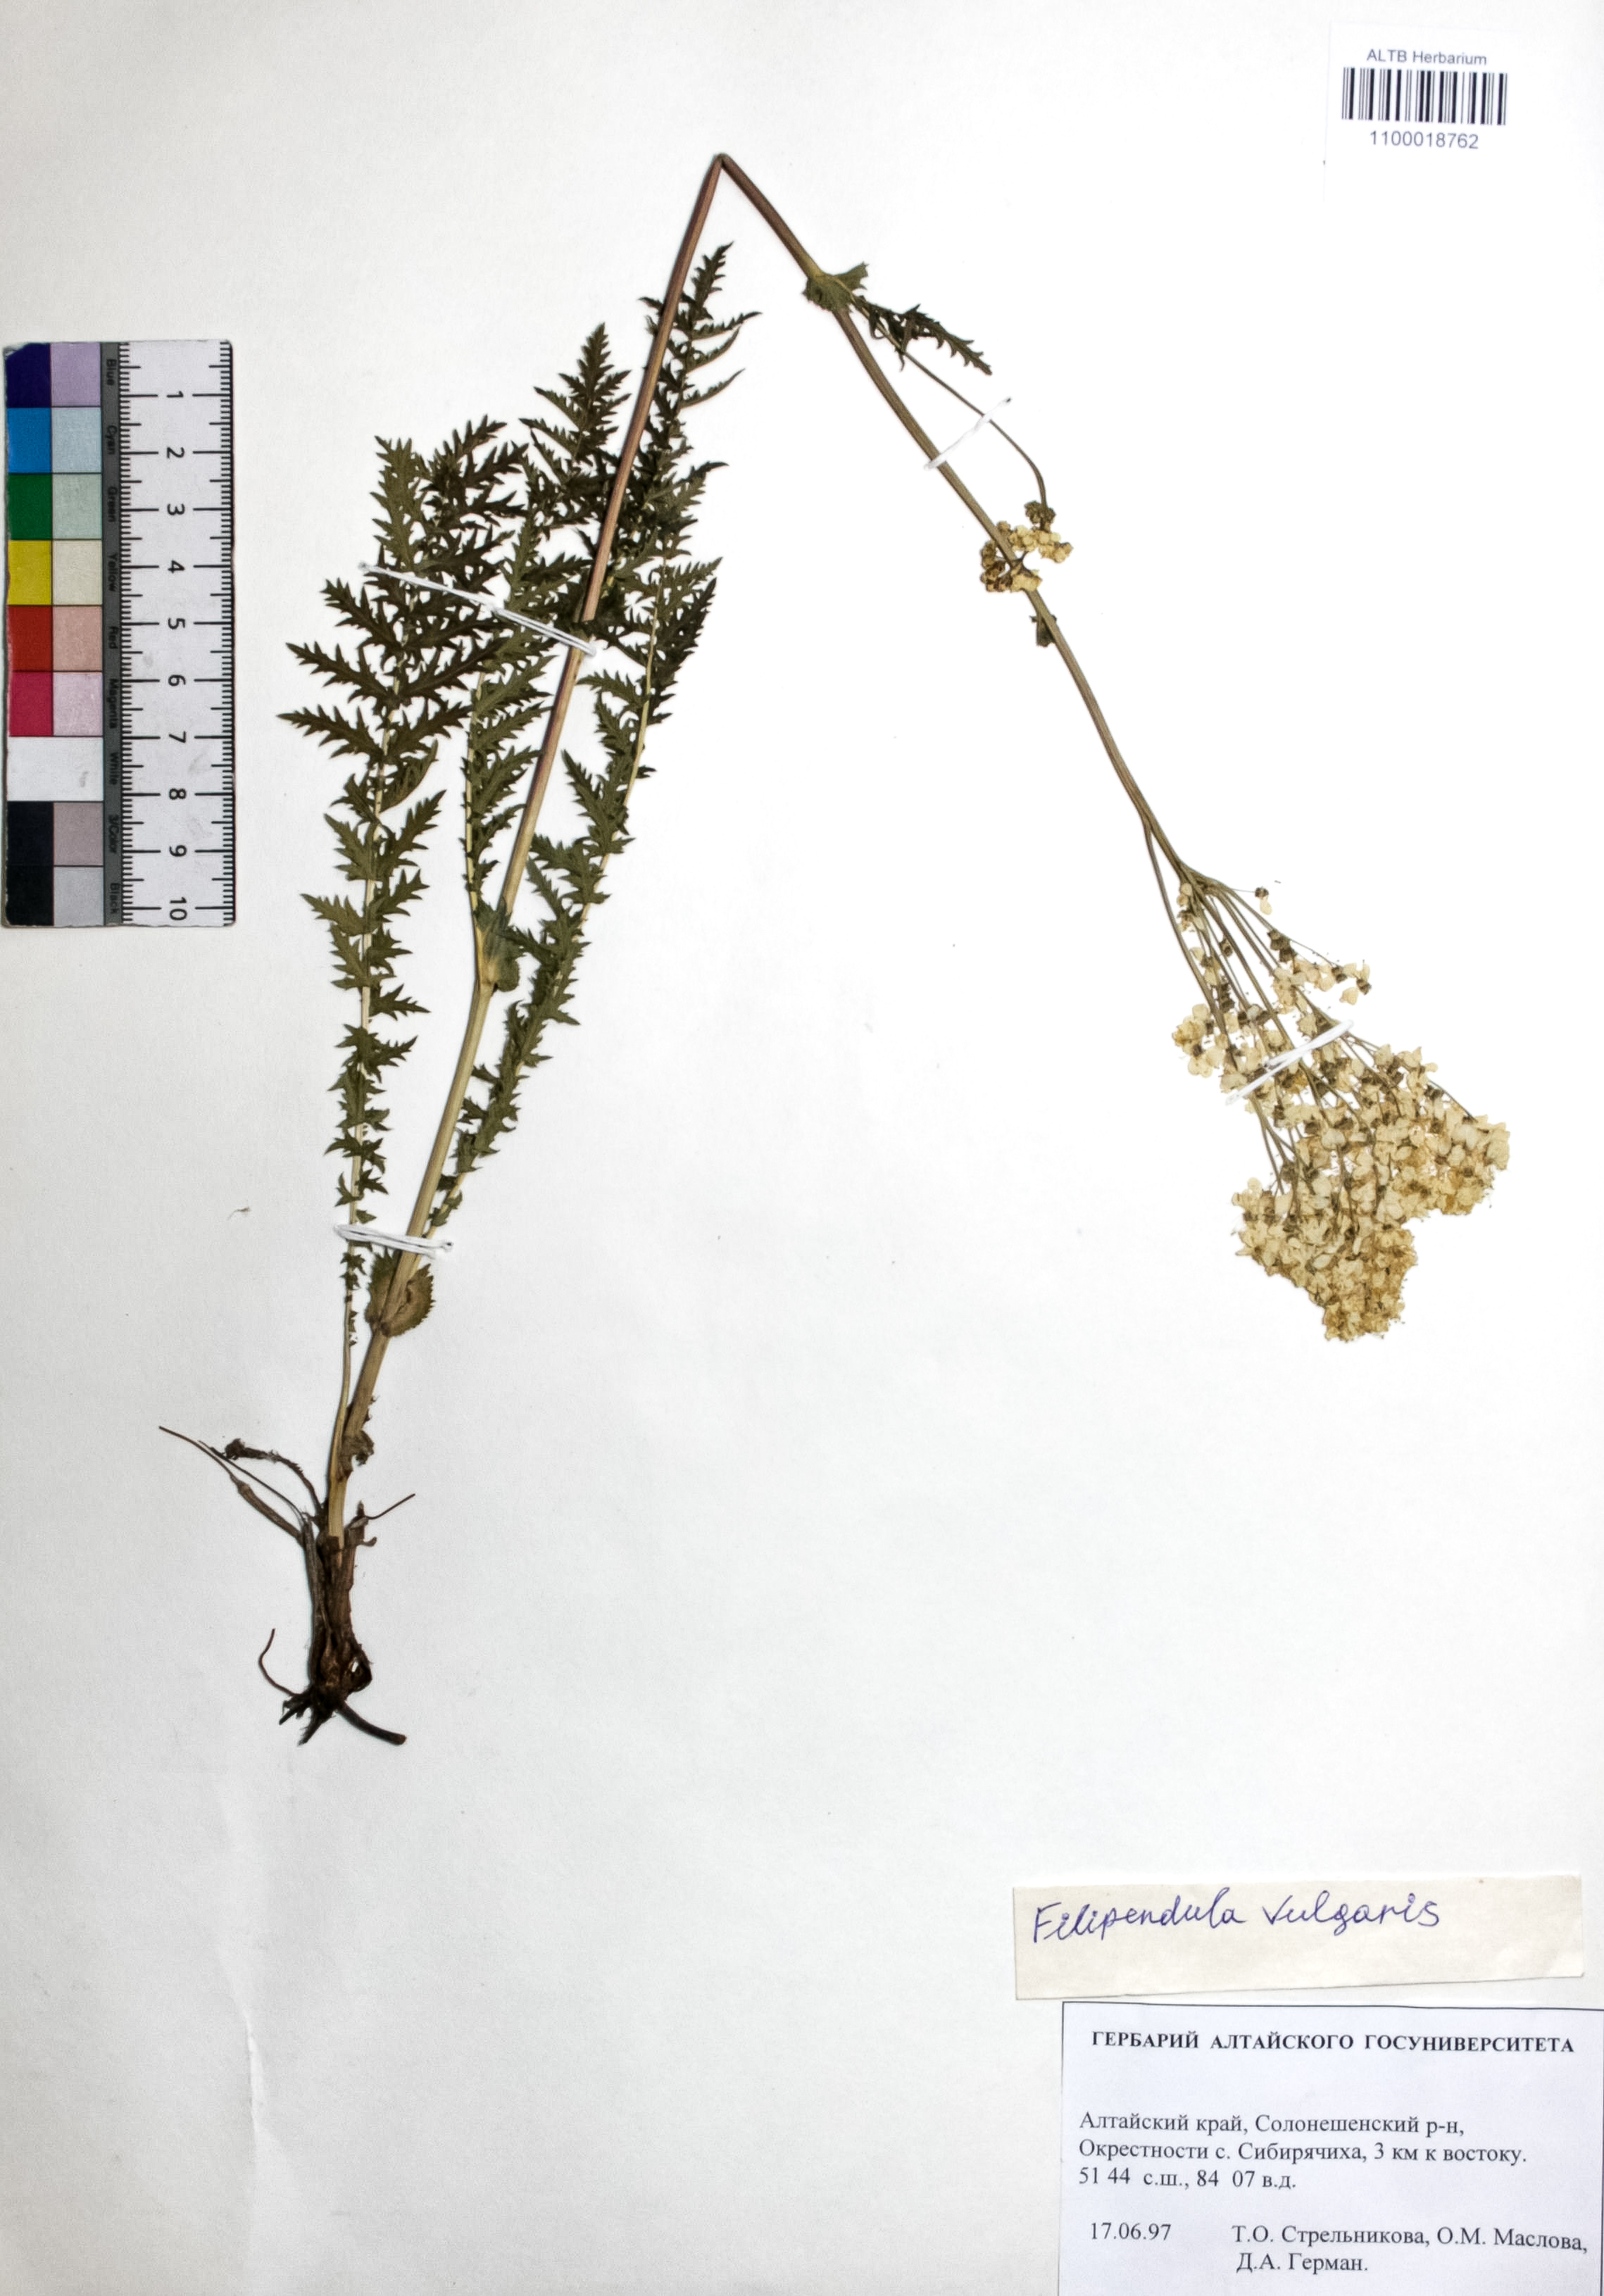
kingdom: Plantae
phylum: Tracheophyta
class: Magnoliopsida
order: Rosales
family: Rosaceae
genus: Filipendula
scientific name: Filipendula vulgaris
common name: Dropwort
